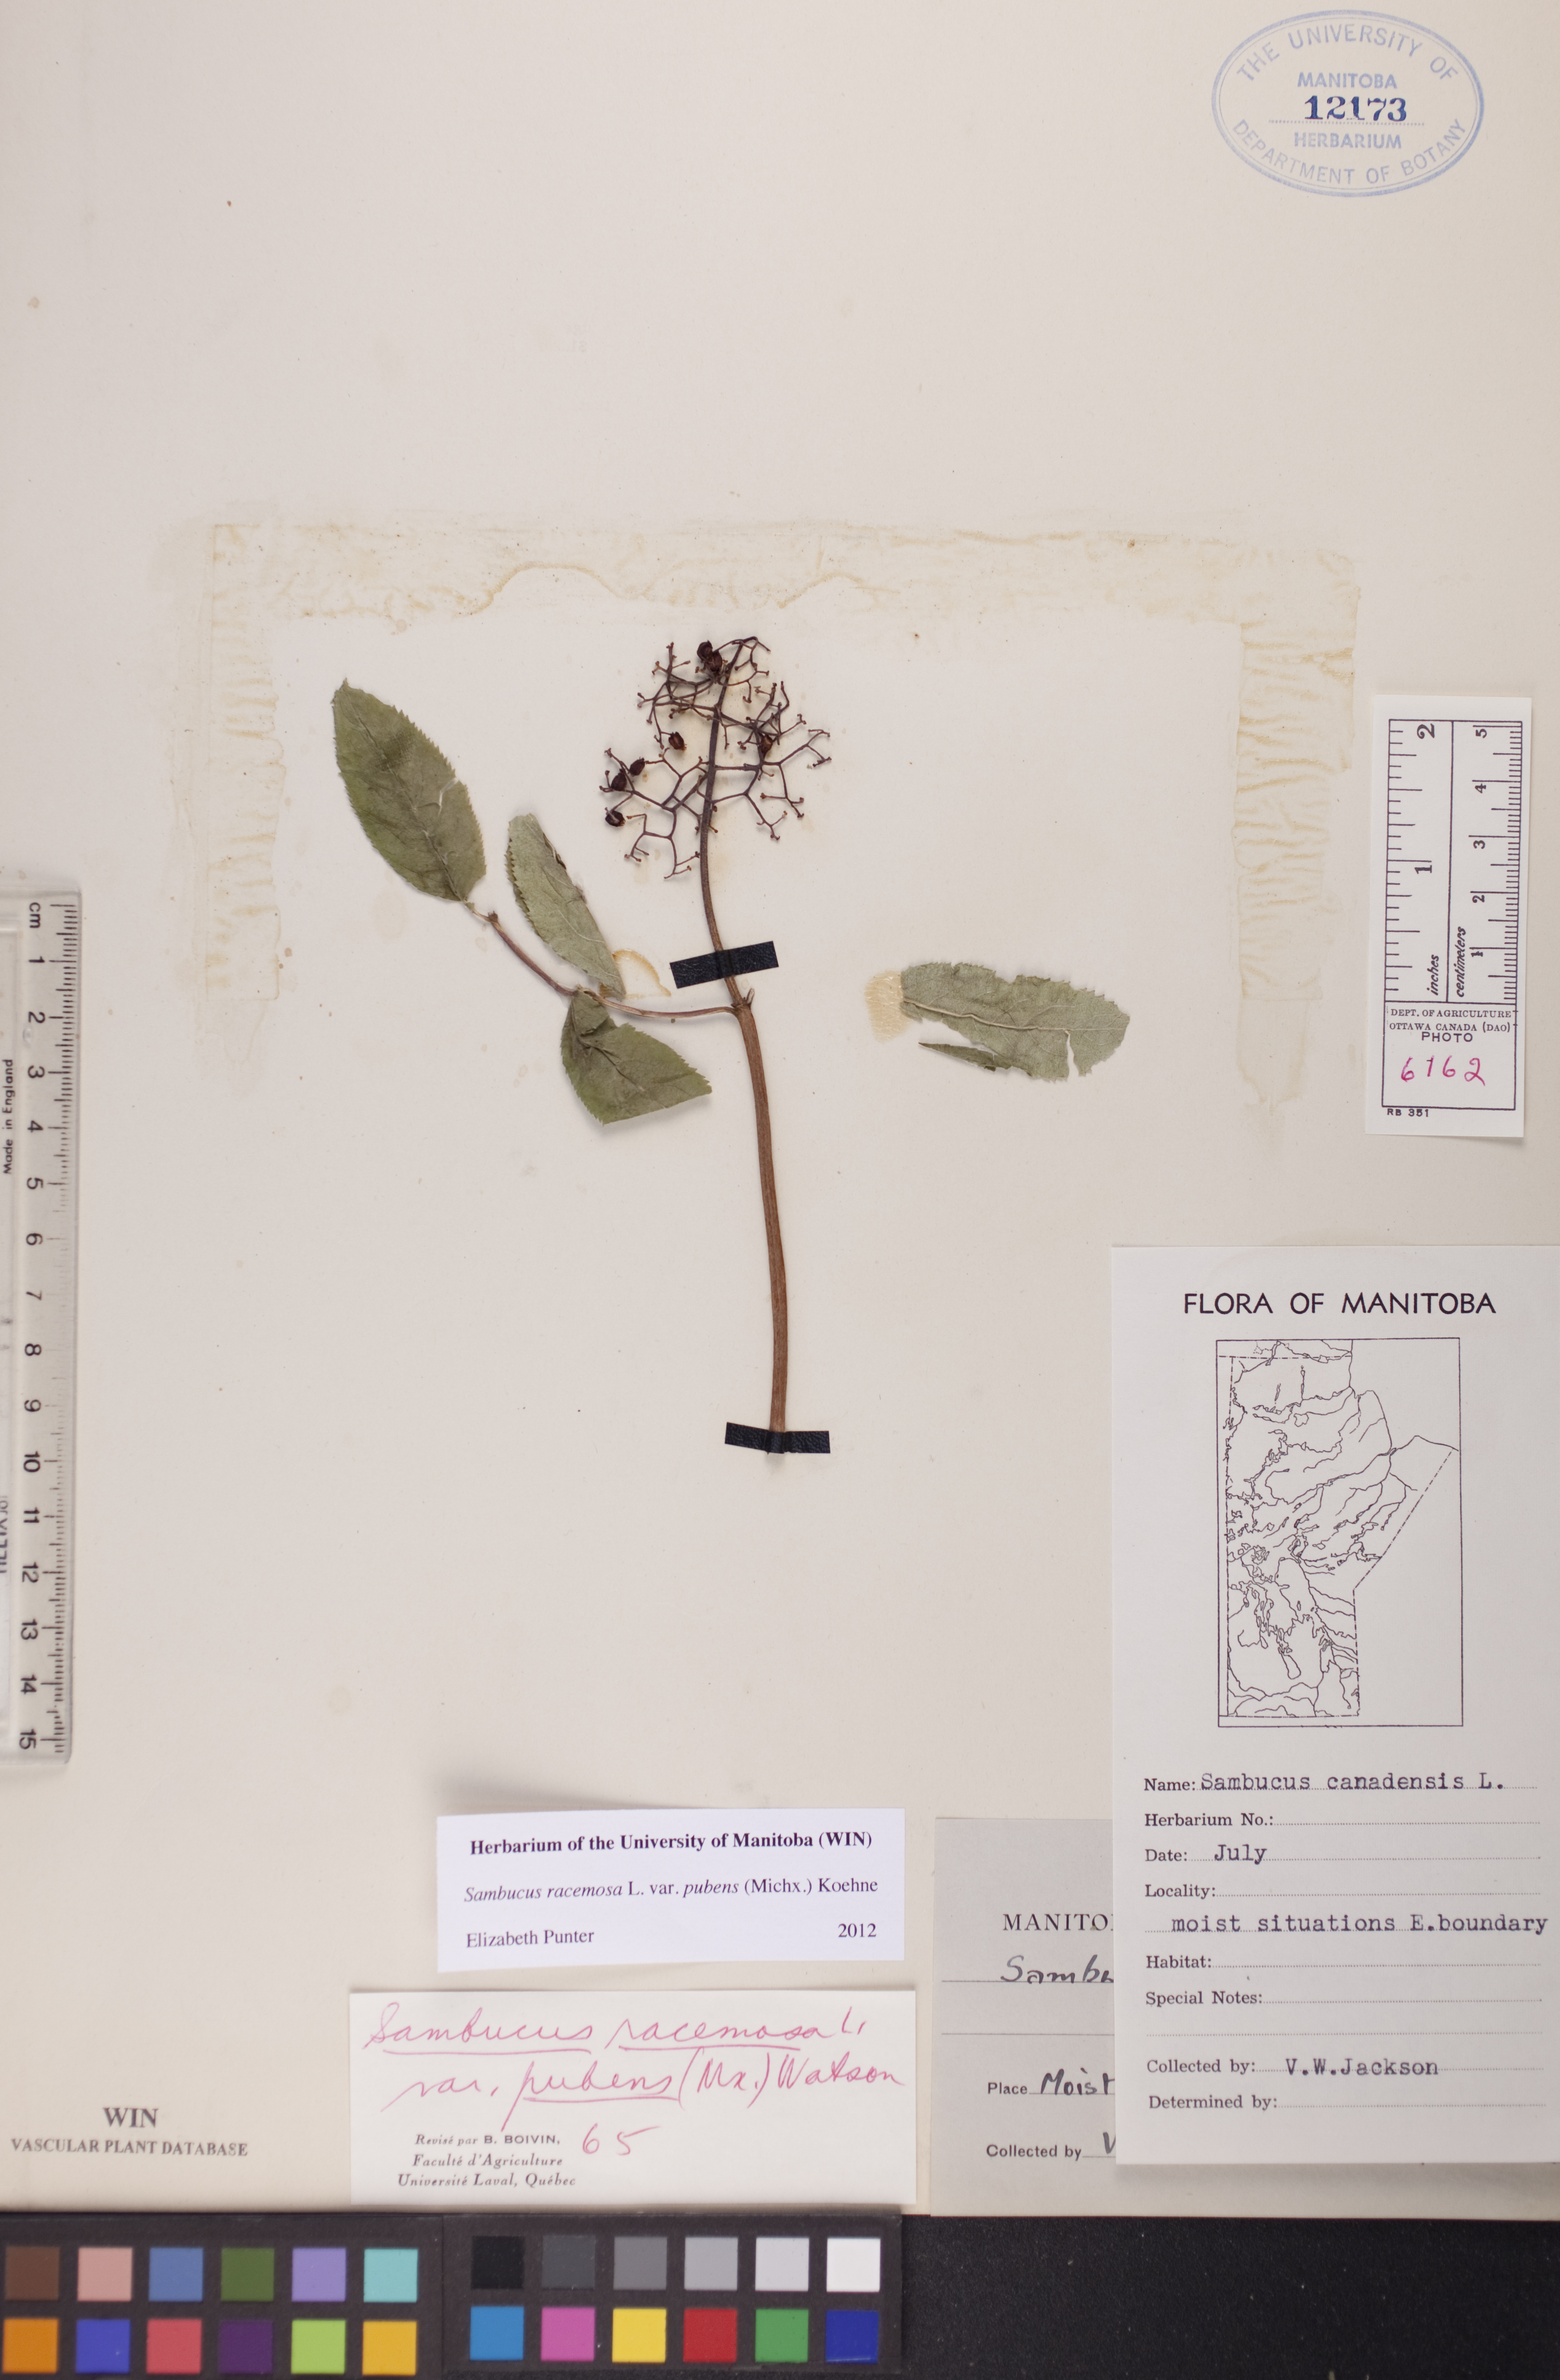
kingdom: Plantae
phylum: Tracheophyta
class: Magnoliopsida
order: Dipsacales
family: Viburnaceae
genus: Sambucus
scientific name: Sambucus racemosa
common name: Red-berried elder
